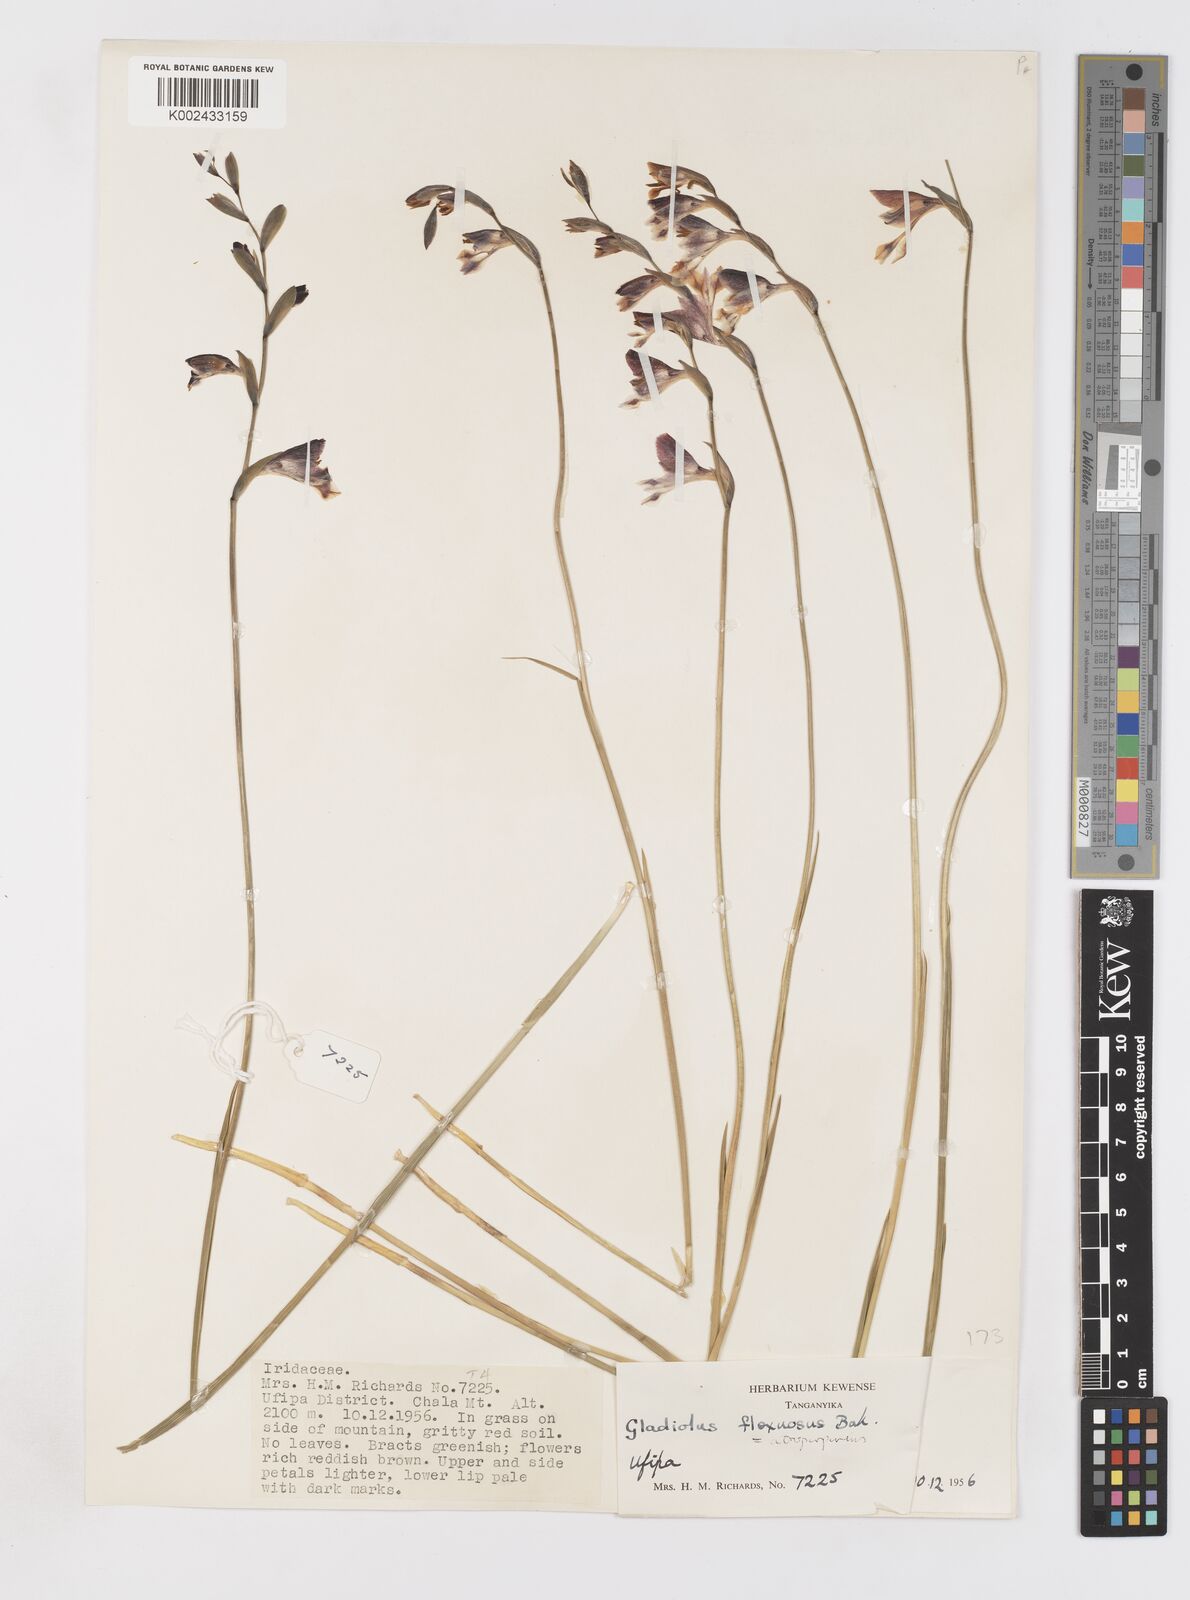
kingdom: Plantae
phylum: Tracheophyta
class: Liliopsida
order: Asparagales
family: Iridaceae
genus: Gladiolus
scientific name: Gladiolus atropurpureus
